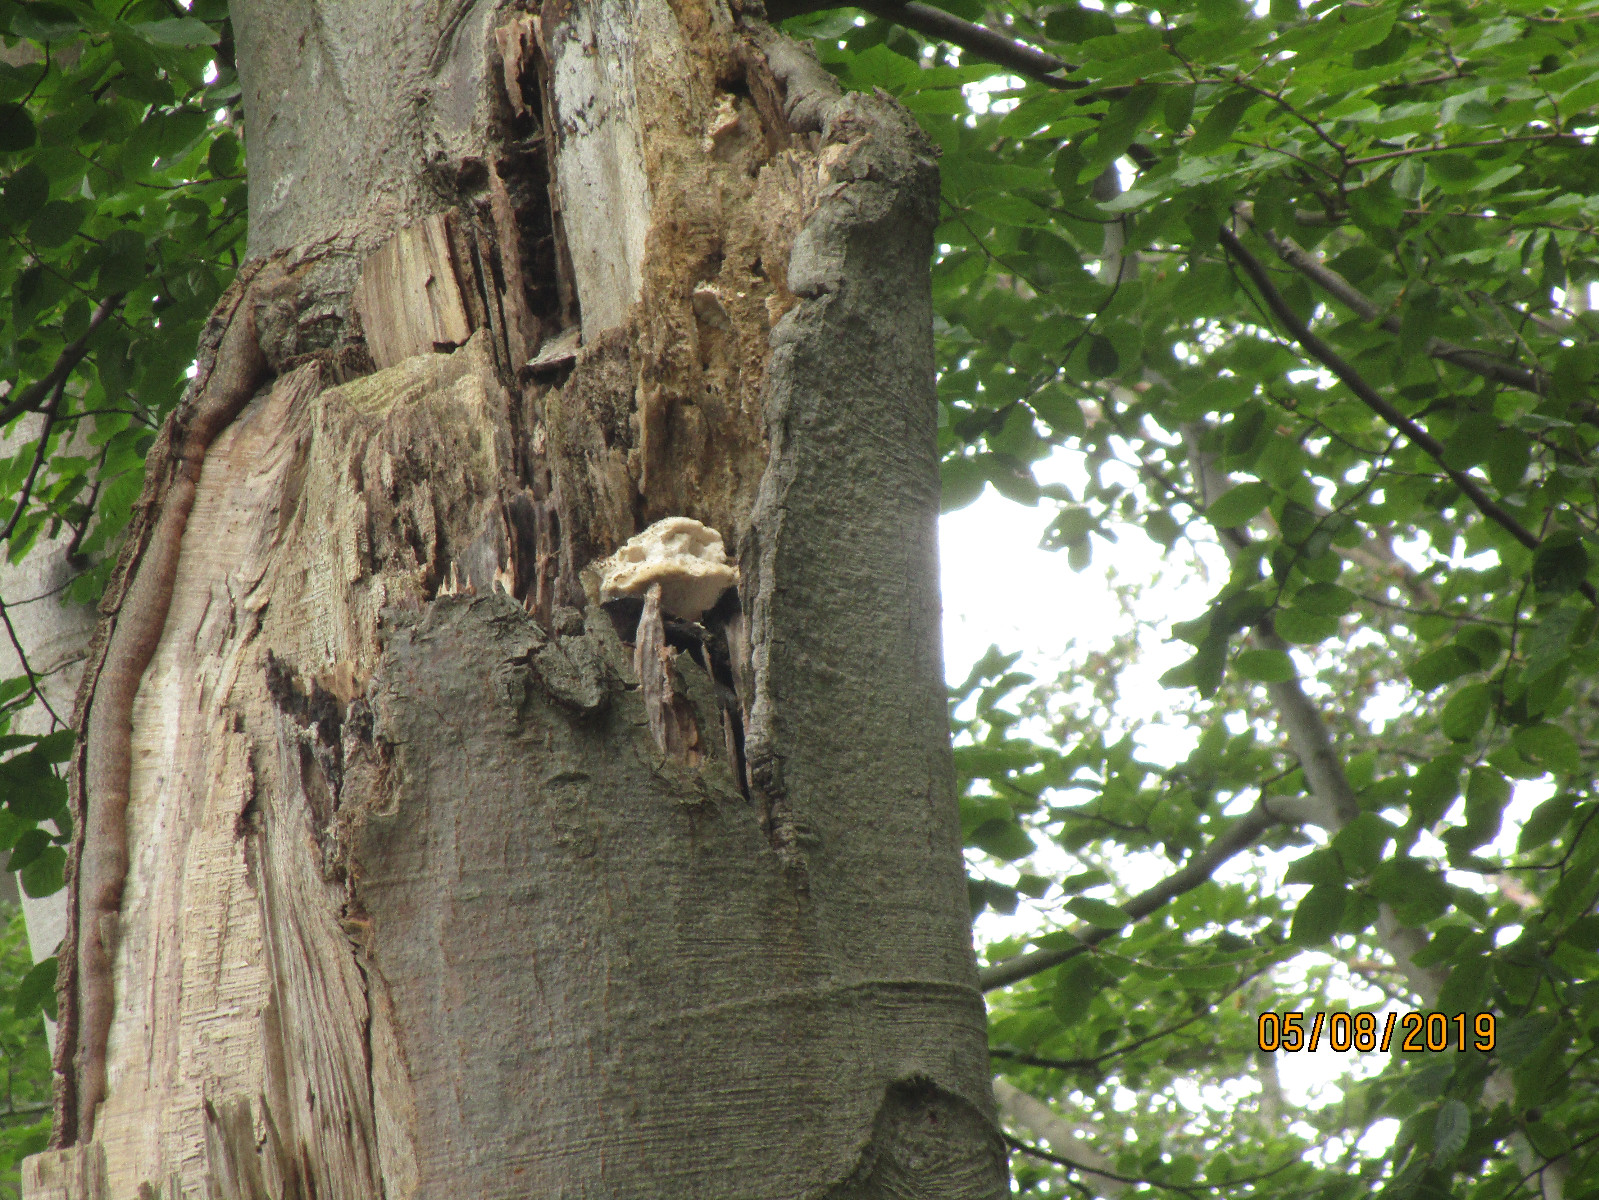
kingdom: Fungi
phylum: Basidiomycota
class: Agaricomycetes
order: Polyporales
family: Meruliaceae
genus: Pappia
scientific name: Pappia fissilis
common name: sej fedtporesvamp
